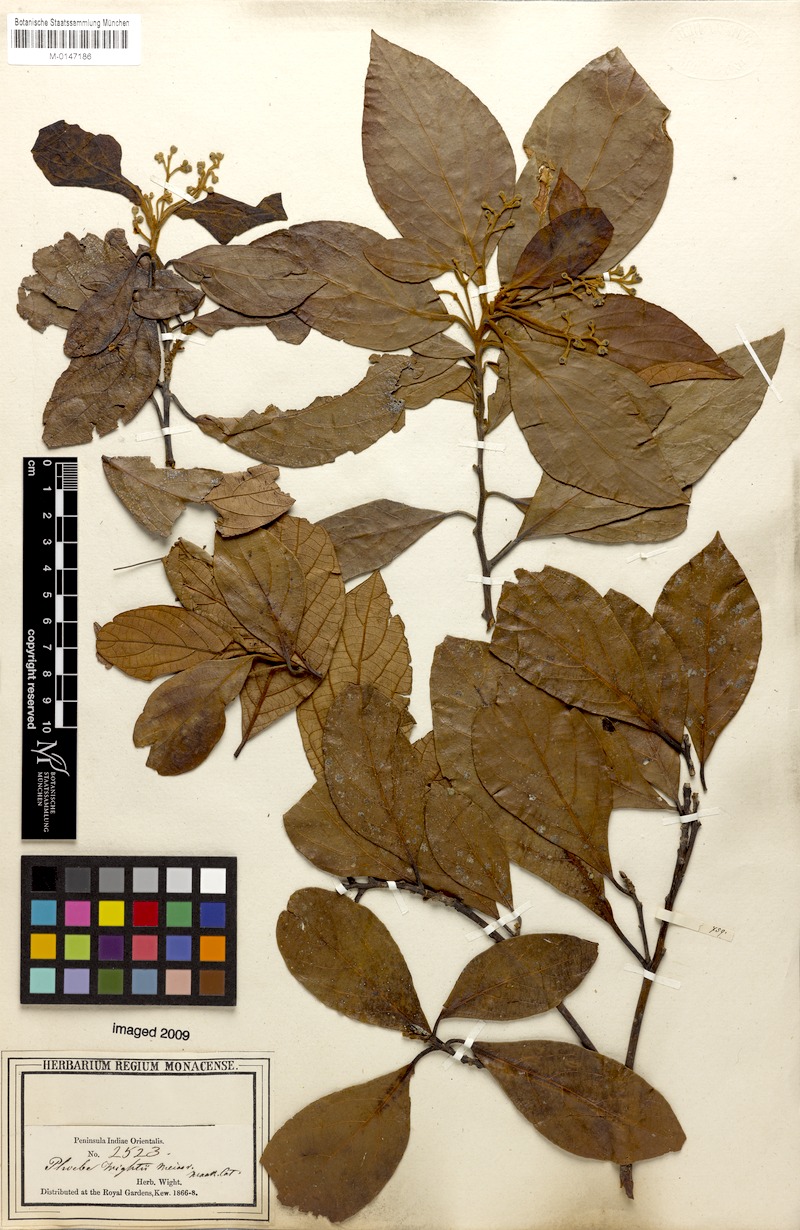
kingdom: Plantae
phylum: Tracheophyta
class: Magnoliopsida
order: Laurales
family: Lauraceae
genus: Phoebe
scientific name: Phoebe wightii
